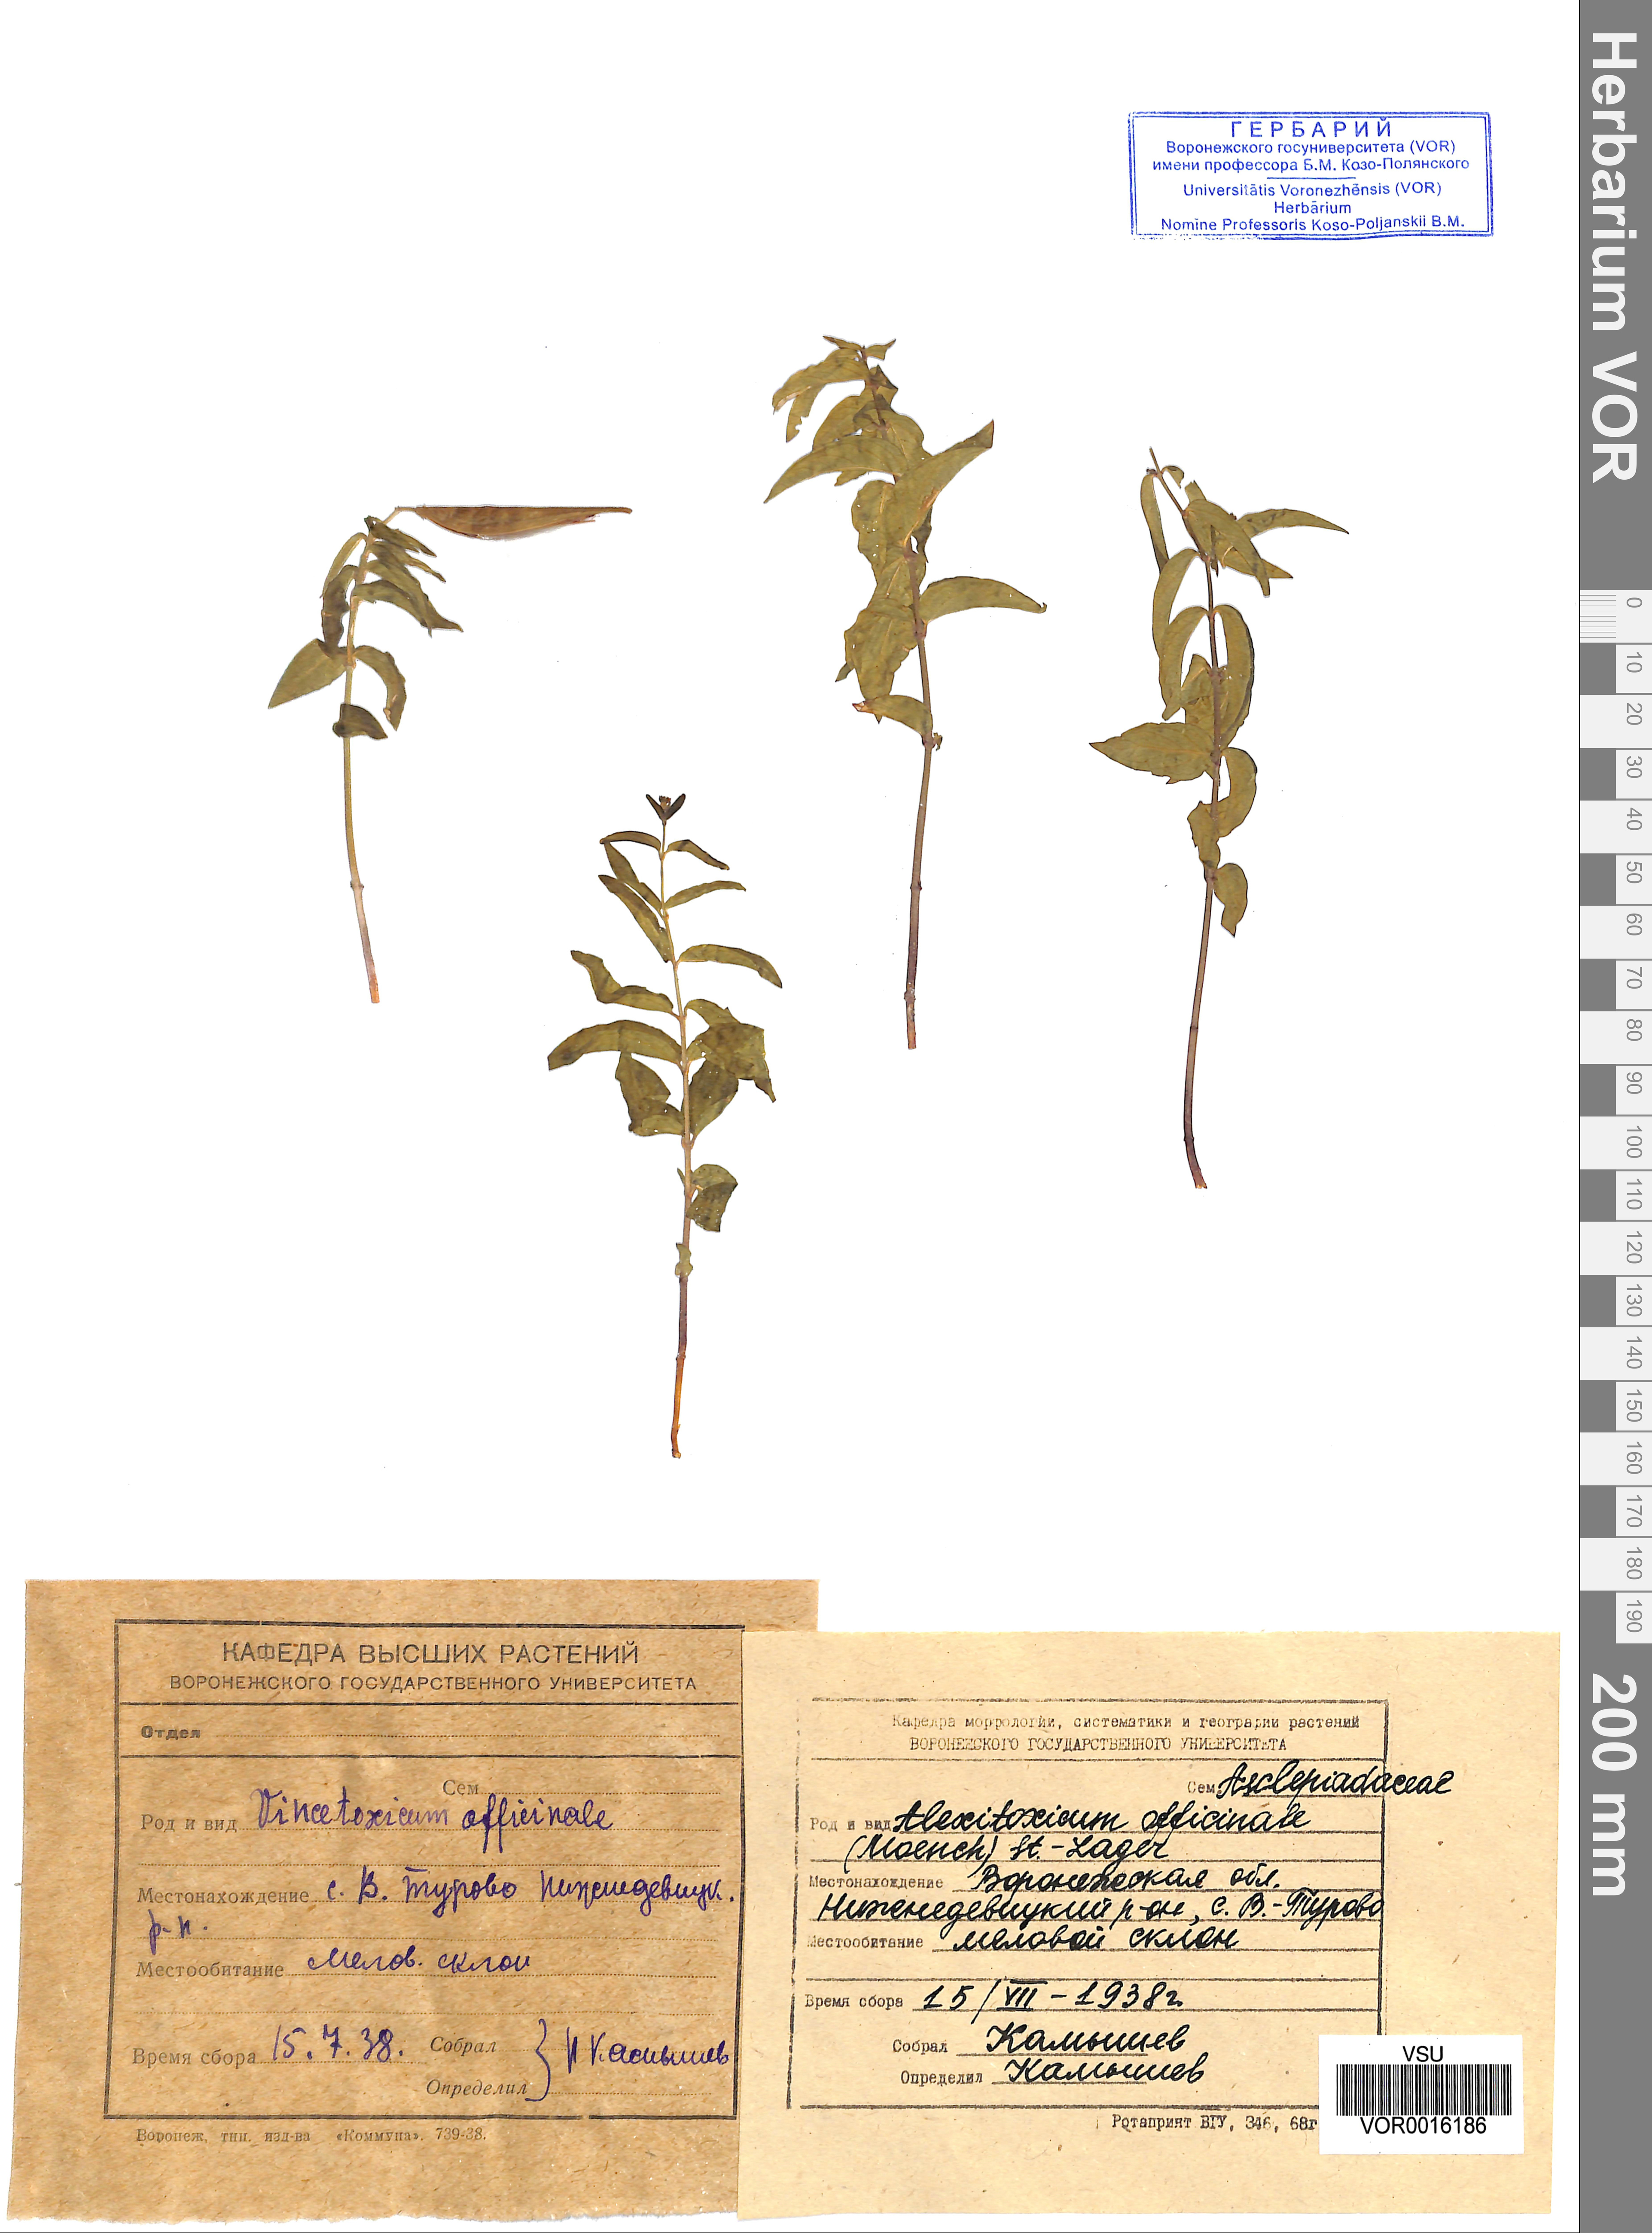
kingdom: Plantae
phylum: Tracheophyta
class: Magnoliopsida
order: Gentianales
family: Apocynaceae
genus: Vincetoxicum
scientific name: Vincetoxicum hirundinaria
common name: White swallowwort
